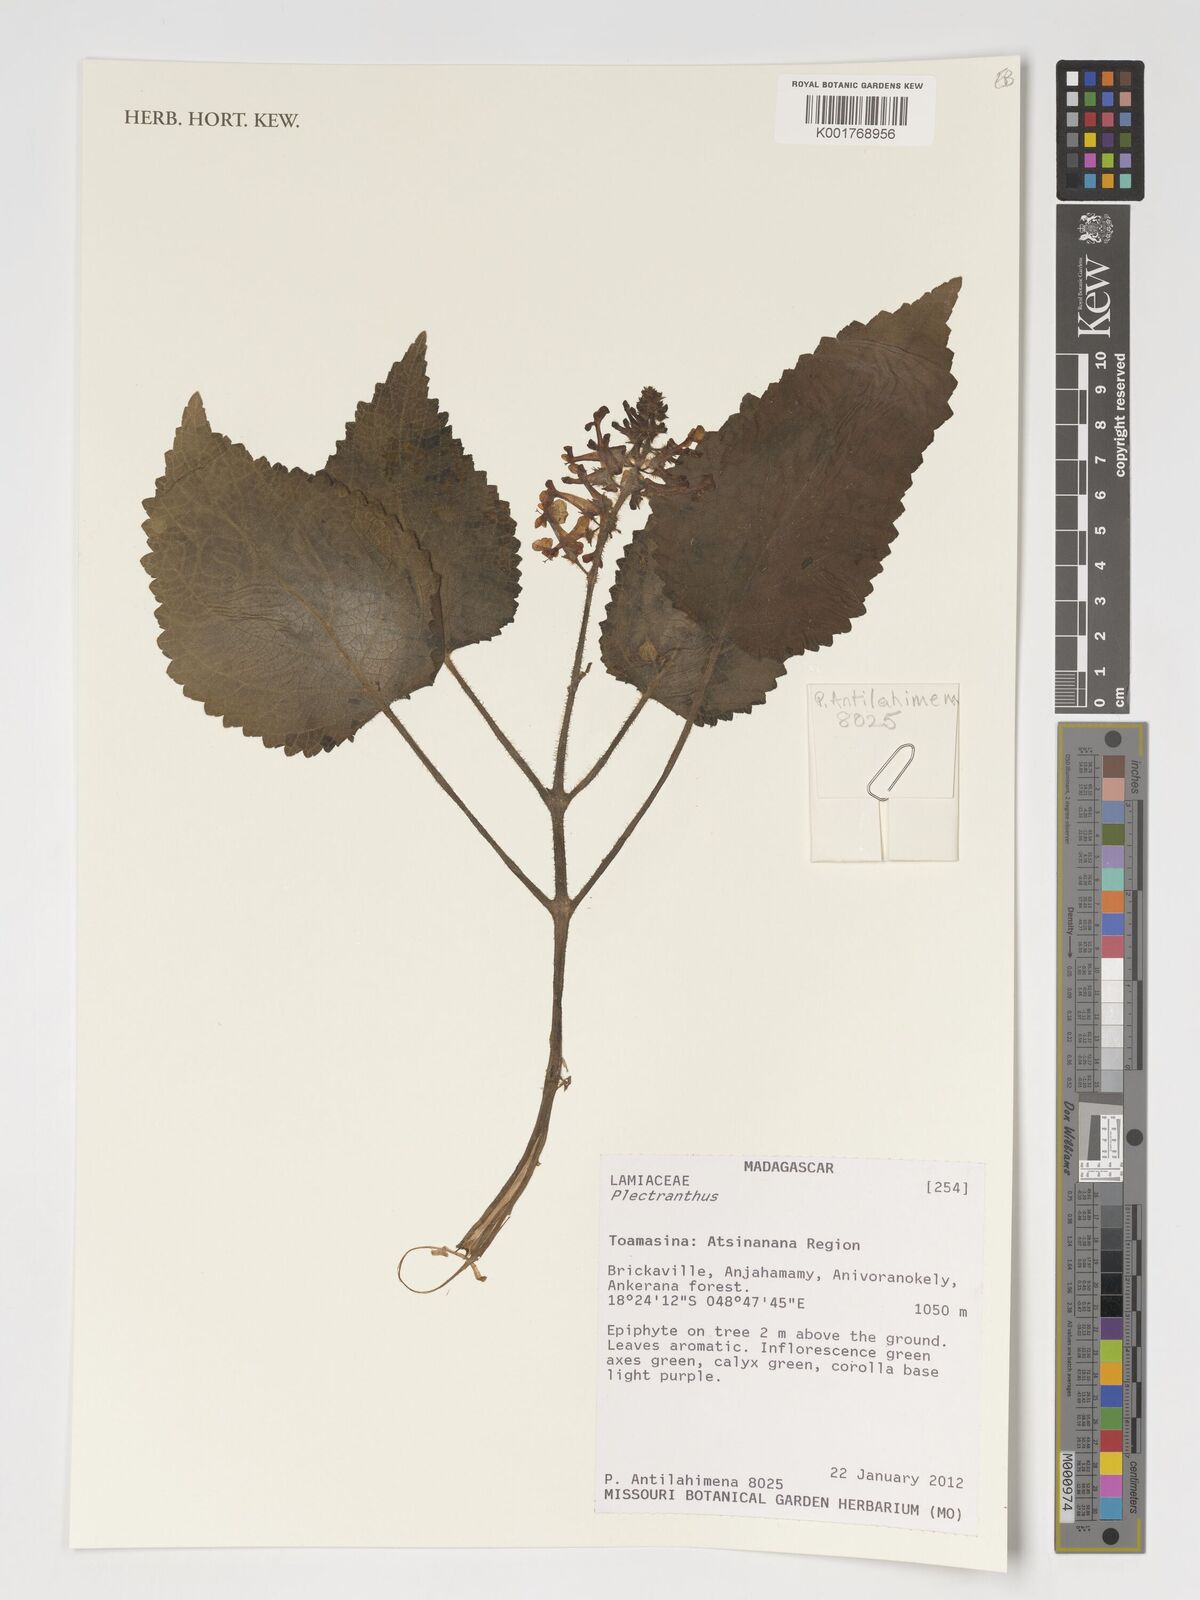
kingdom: Plantae
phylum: Tracheophyta
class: Magnoliopsida
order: Lamiales
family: Lamiaceae
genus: Plectranthus
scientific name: Plectranthus
